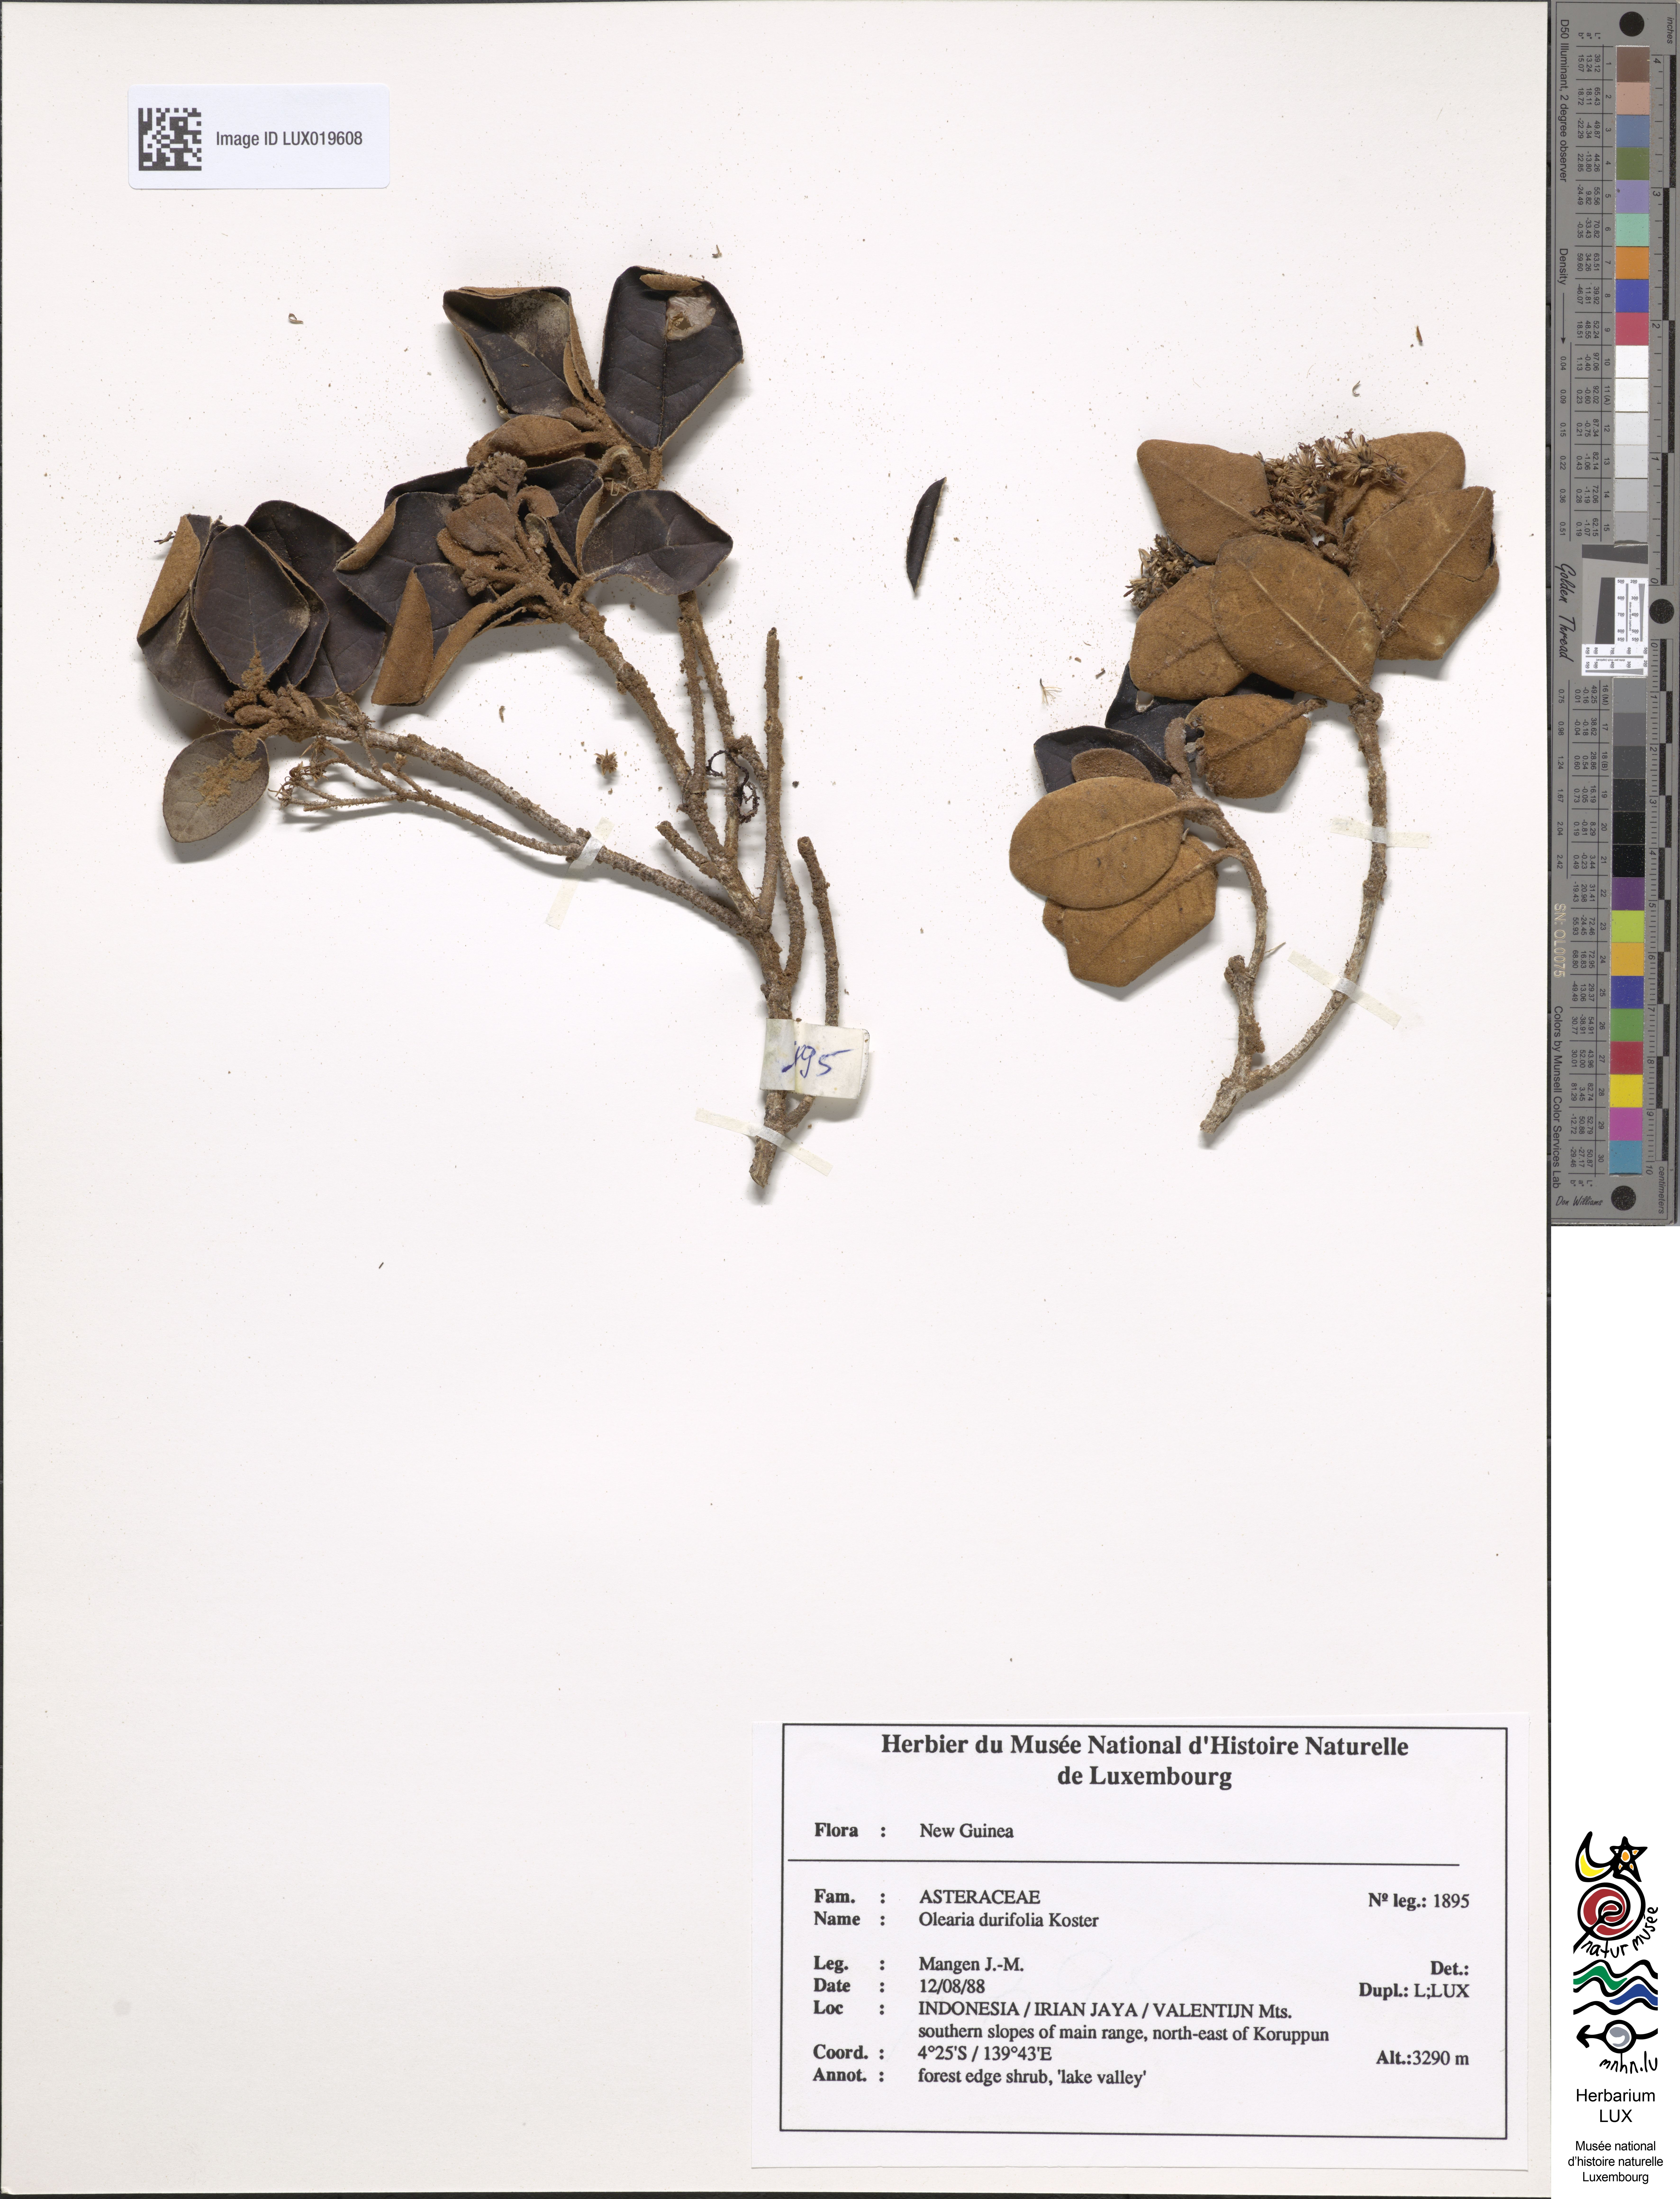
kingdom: Plantae
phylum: Tracheophyta
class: Magnoliopsida
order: Asterales
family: Asteraceae
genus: Olearia
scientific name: Olearia durifolia
